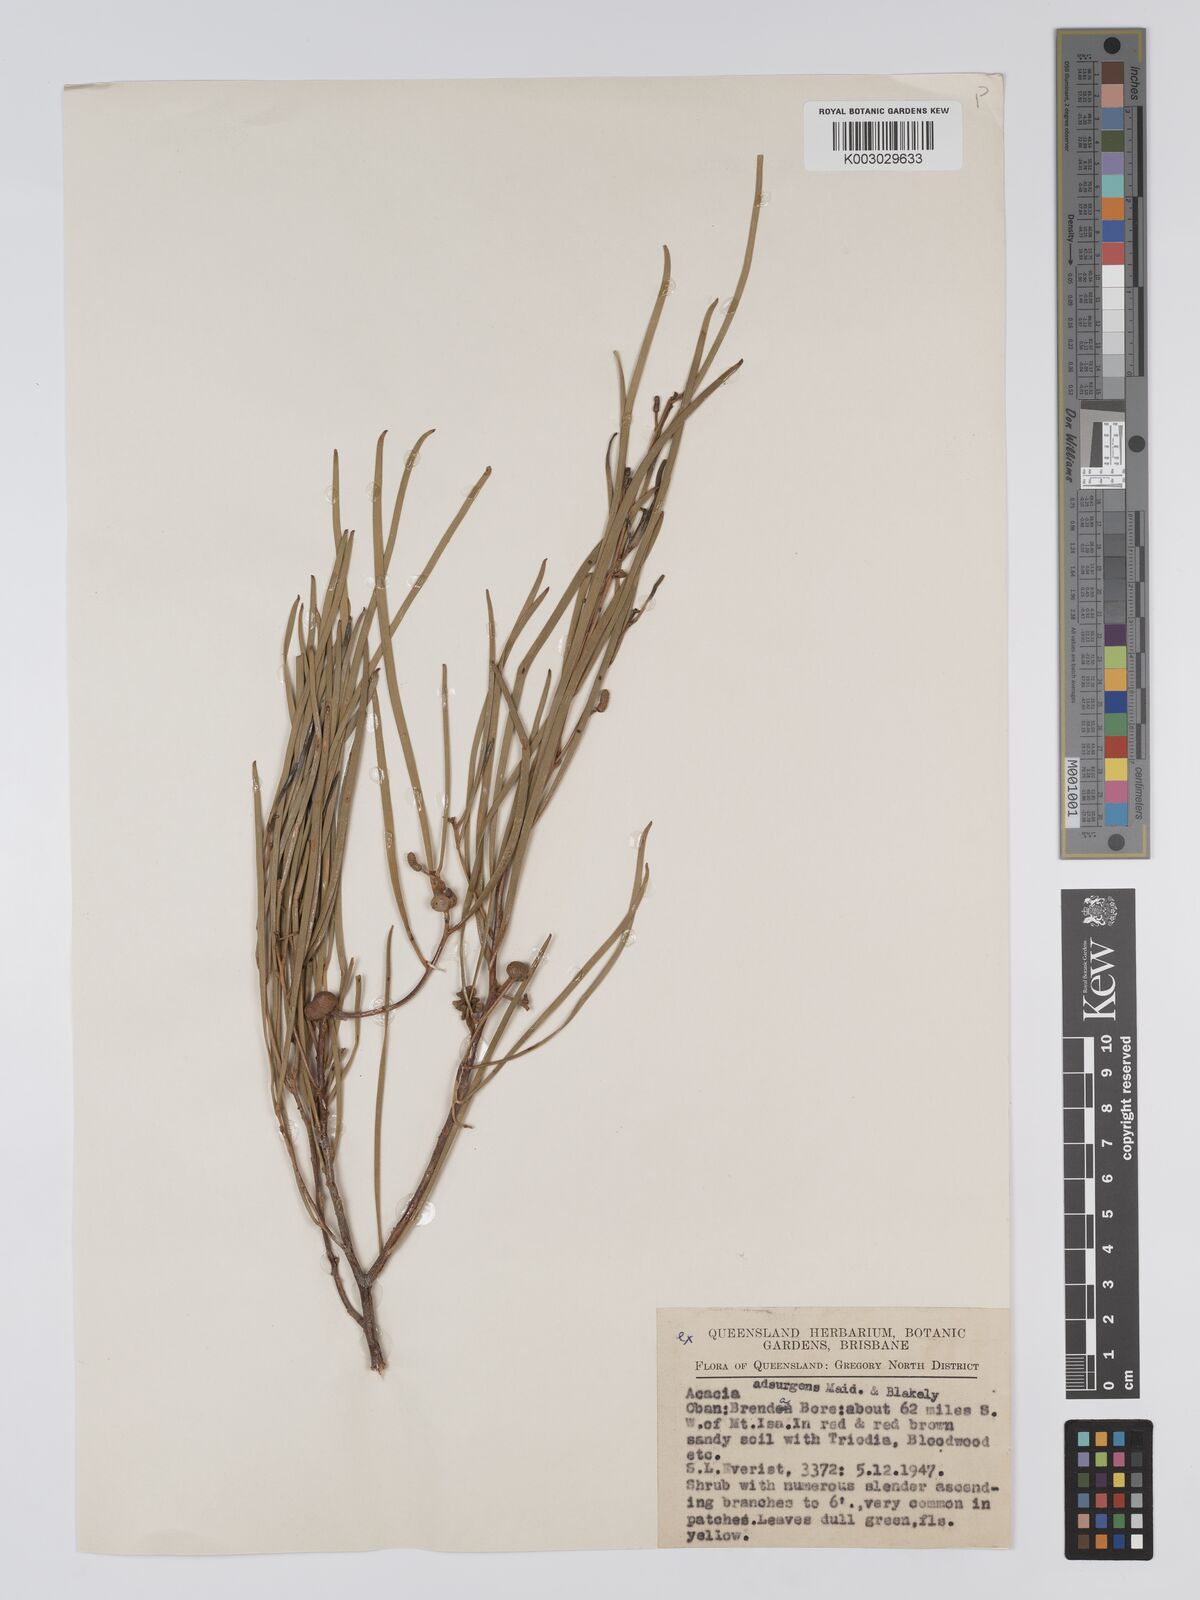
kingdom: Plantae
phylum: Tracheophyta
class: Magnoliopsida
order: Fabales
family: Fabaceae
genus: Acacia
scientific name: Acacia adsurgens
